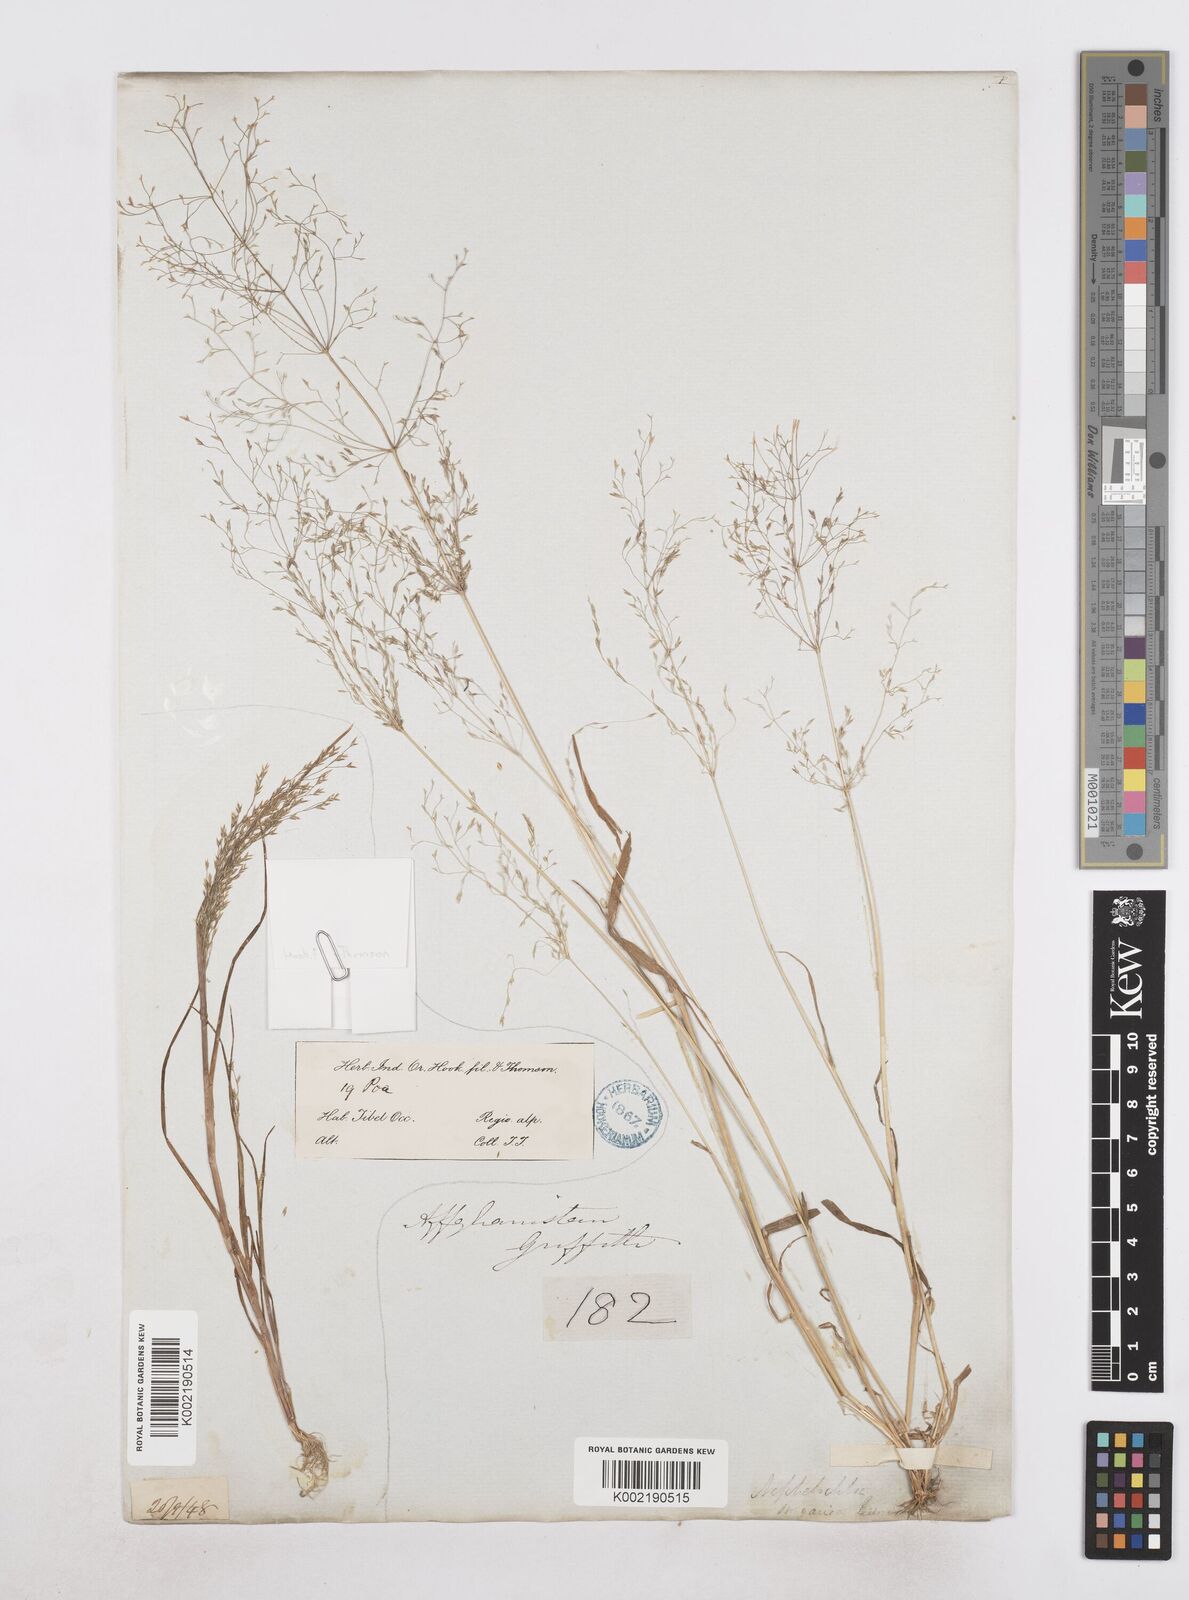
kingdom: Plantae
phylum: Tracheophyta
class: Liliopsida
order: Poales
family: Poaceae
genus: Poa
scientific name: Poa diaphora
